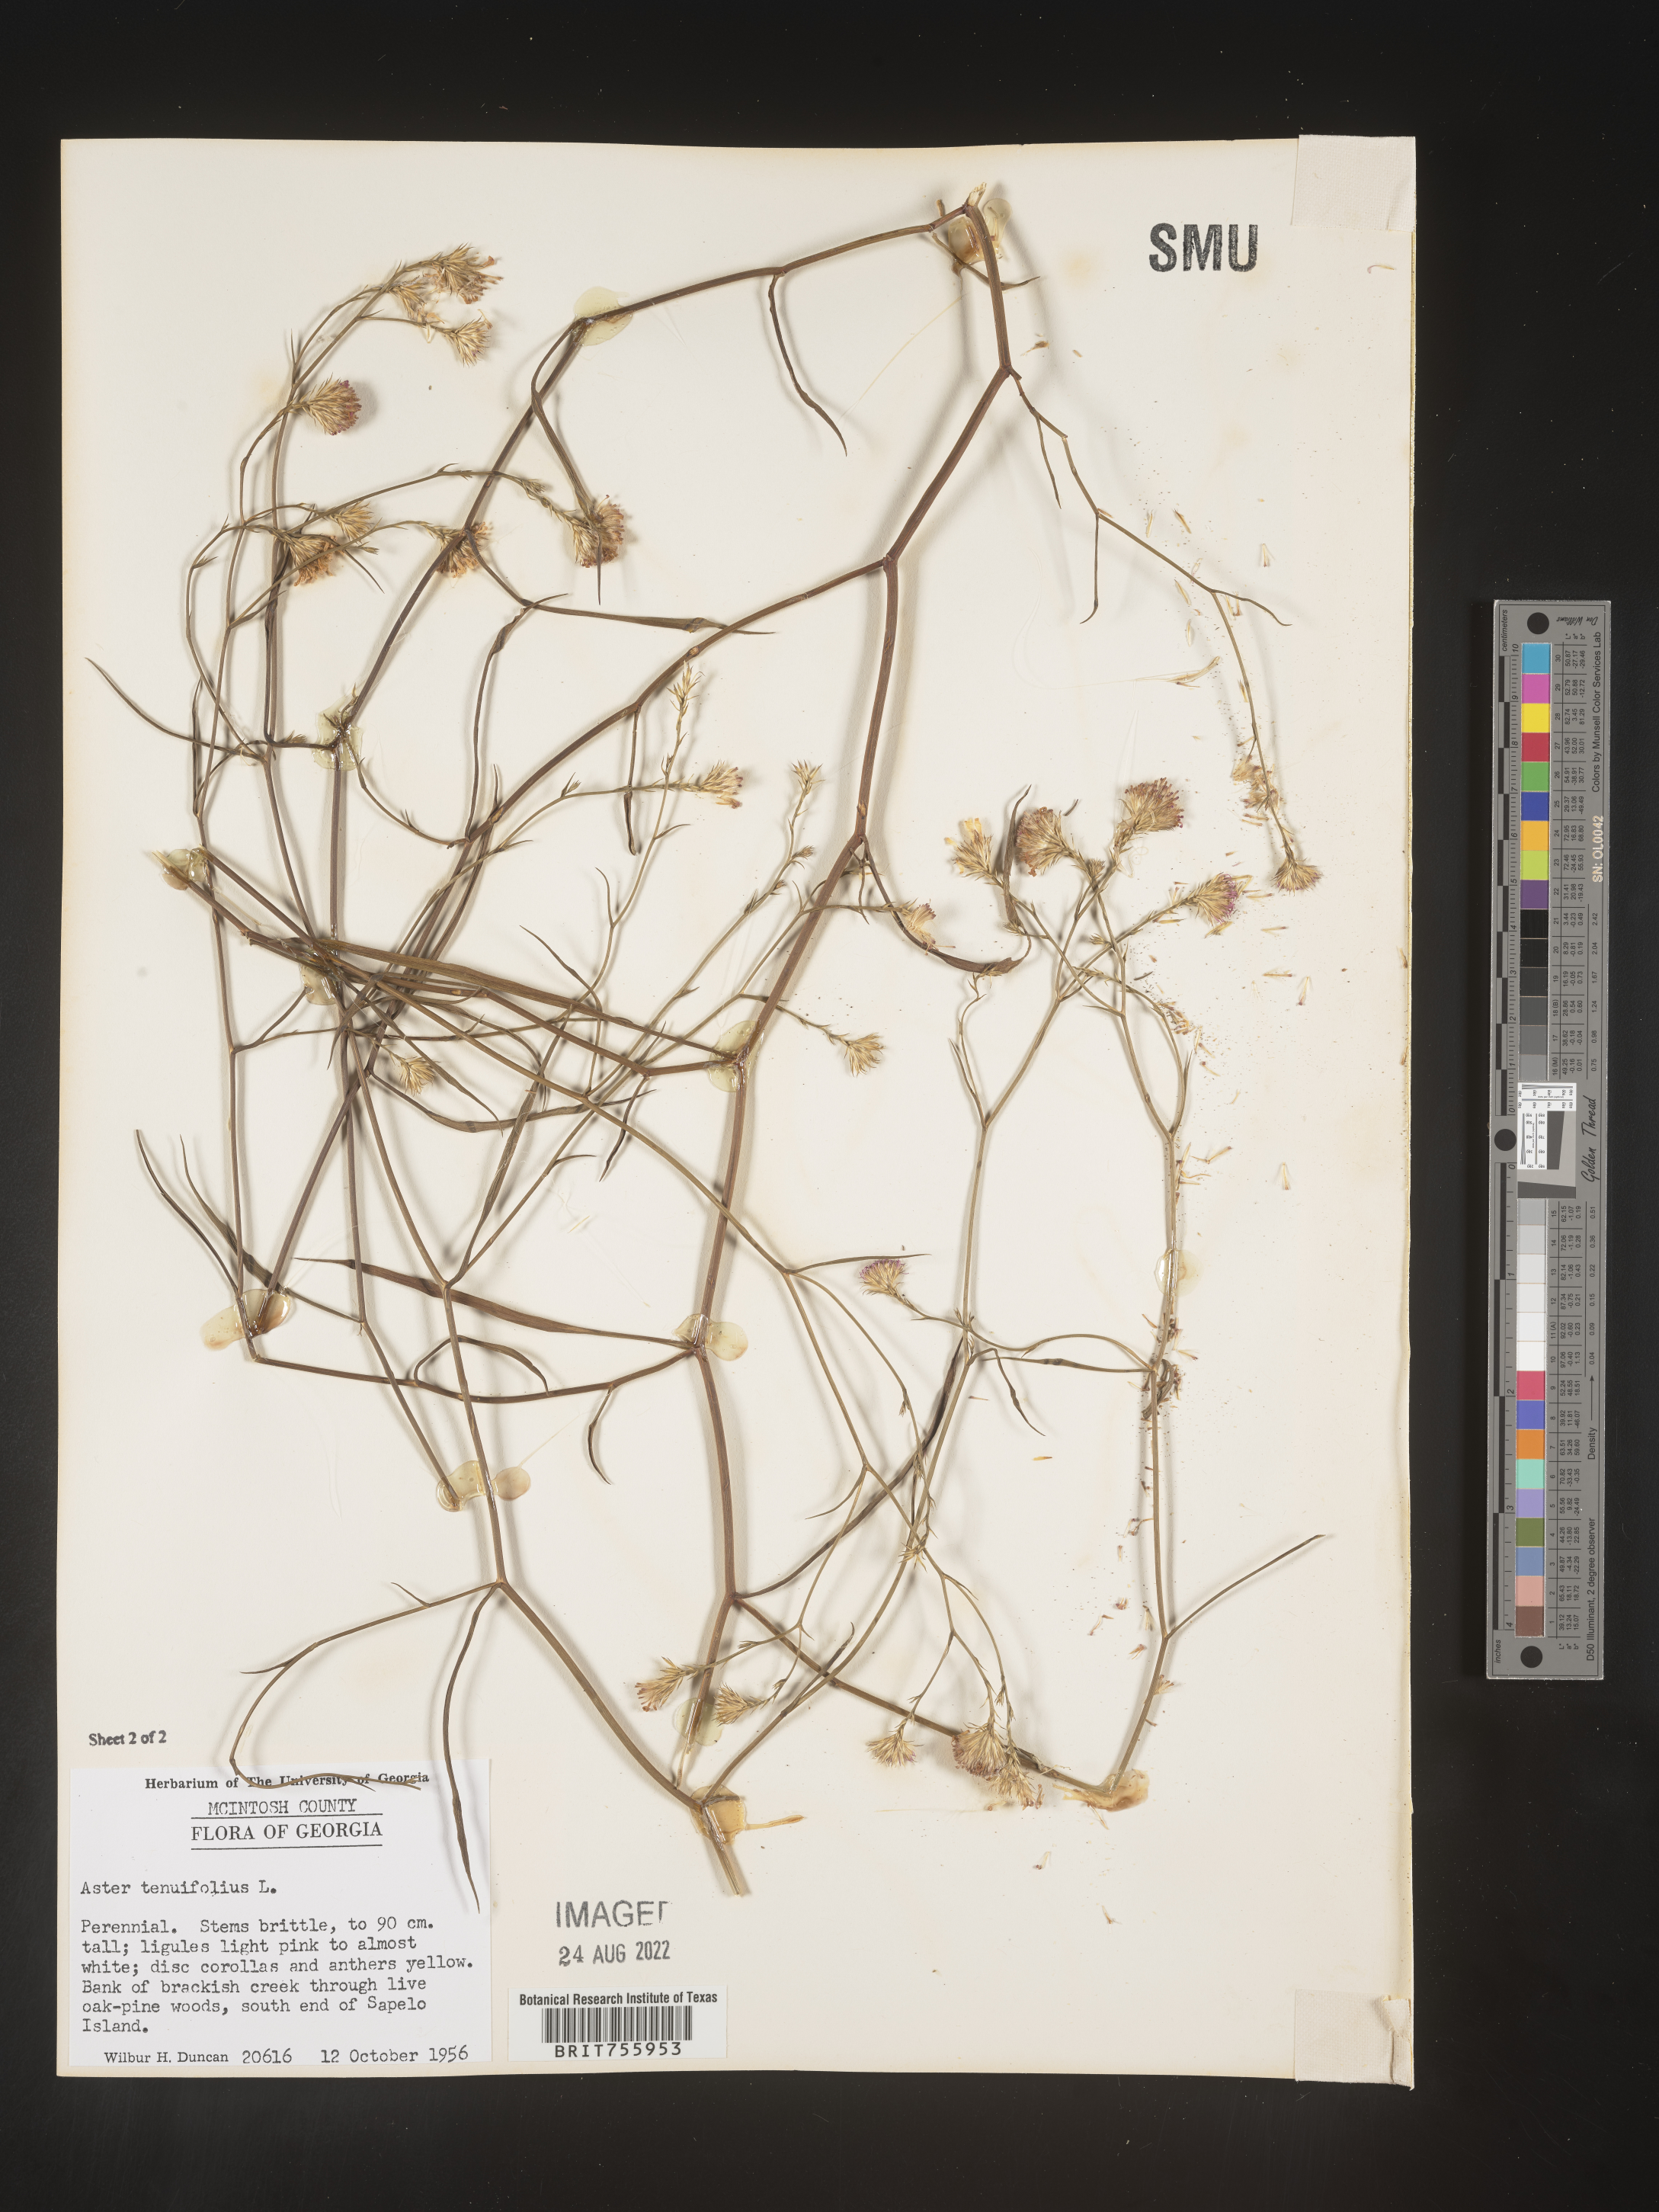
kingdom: Plantae
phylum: Tracheophyta
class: Magnoliopsida
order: Asterales
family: Asteraceae
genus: Symphyotrichum
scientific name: Symphyotrichum tenuifolium
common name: Perennial salt-marsh aster
